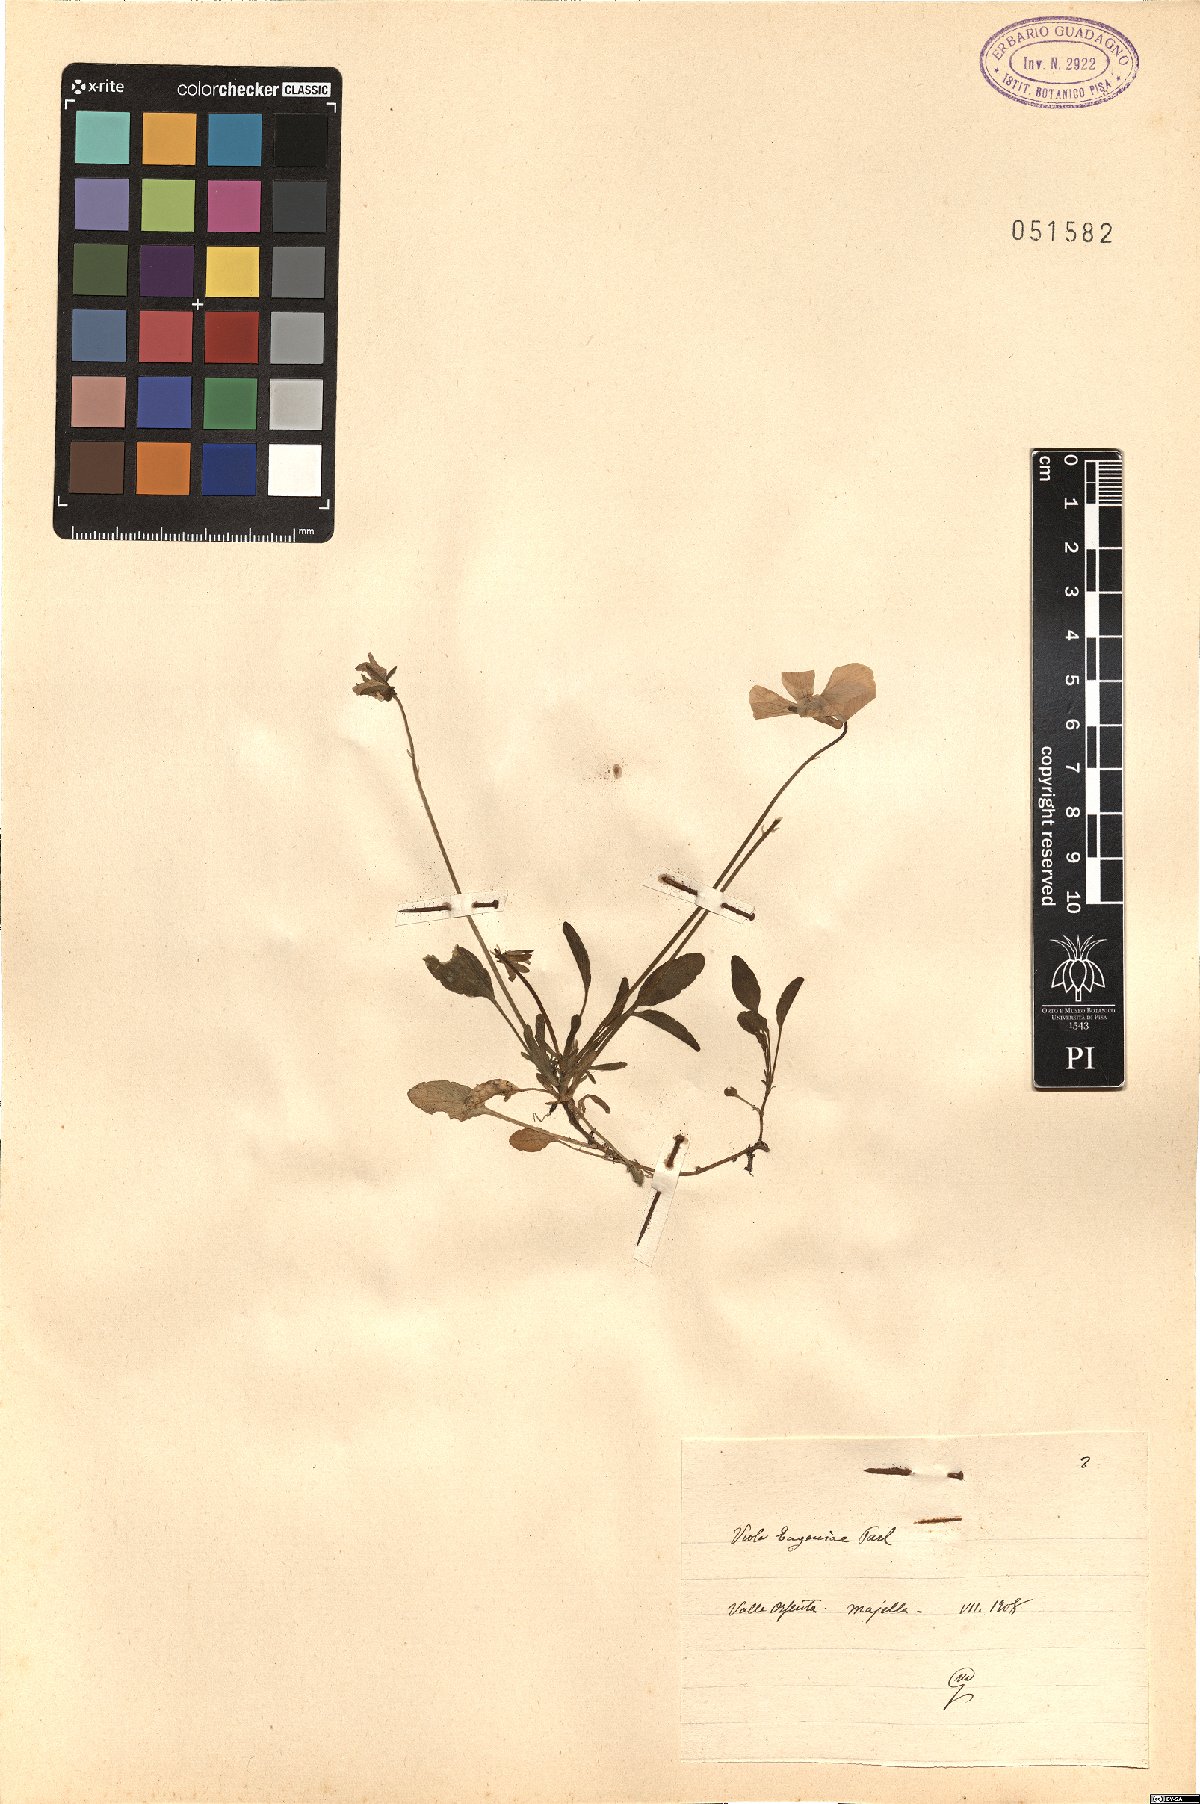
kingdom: Plantae
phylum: Tracheophyta
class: Magnoliopsida
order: Malpighiales
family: Violaceae
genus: Viola
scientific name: Viola eugeniae
